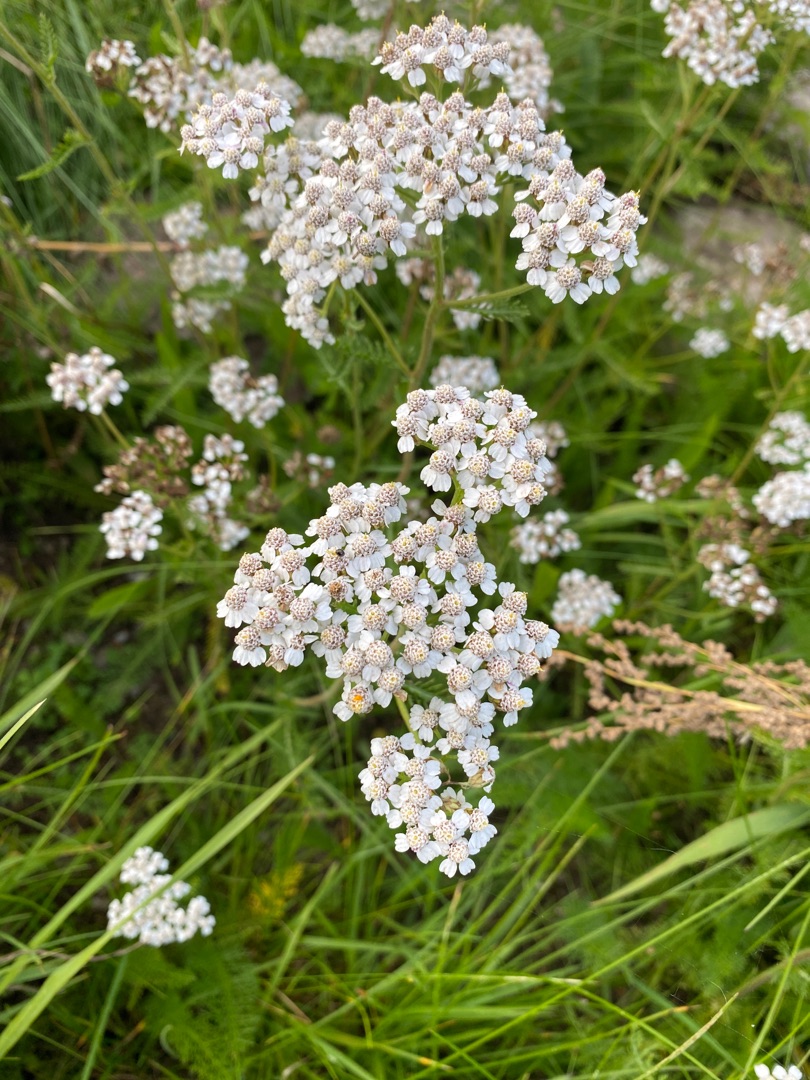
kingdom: Plantae
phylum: Tracheophyta
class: Magnoliopsida
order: Asterales
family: Asteraceae
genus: Achillea
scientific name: Achillea millefolium
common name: Almindelig røllike
